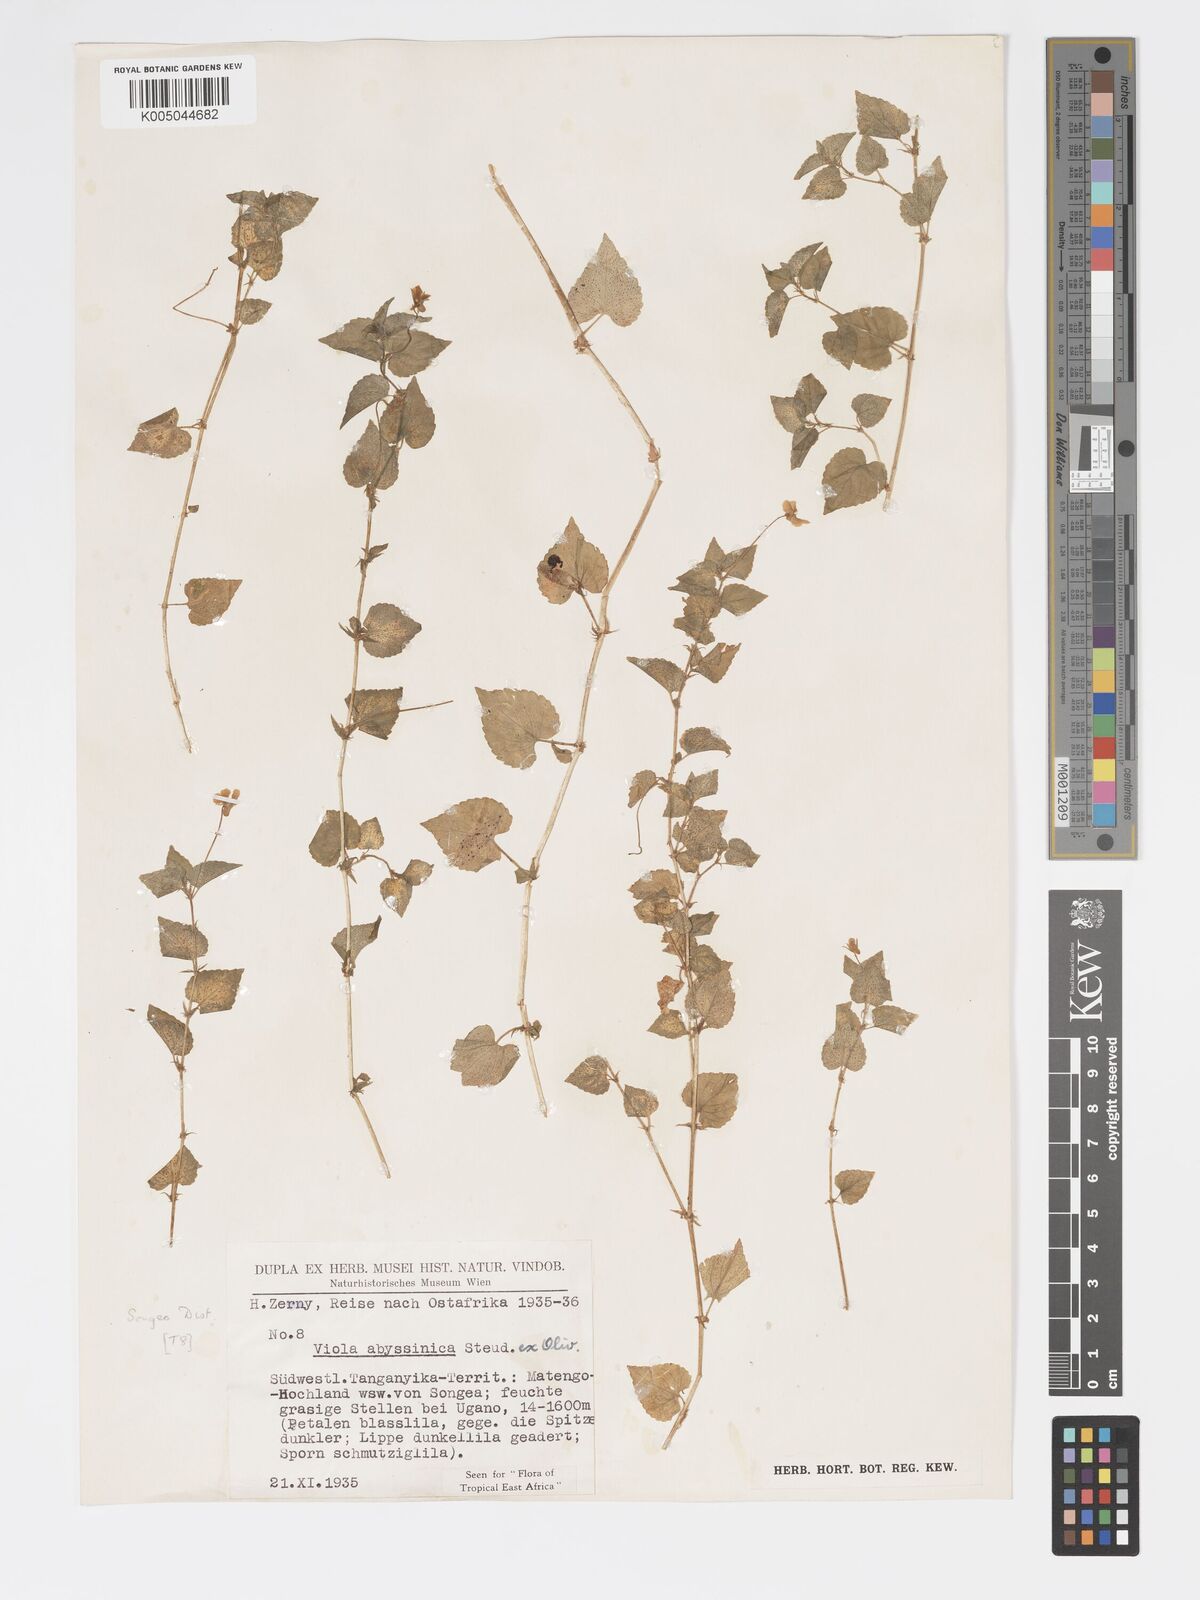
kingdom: Plantae
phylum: Tracheophyta
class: Magnoliopsida
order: Malpighiales
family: Violaceae
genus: Viola
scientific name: Viola abyssinica
